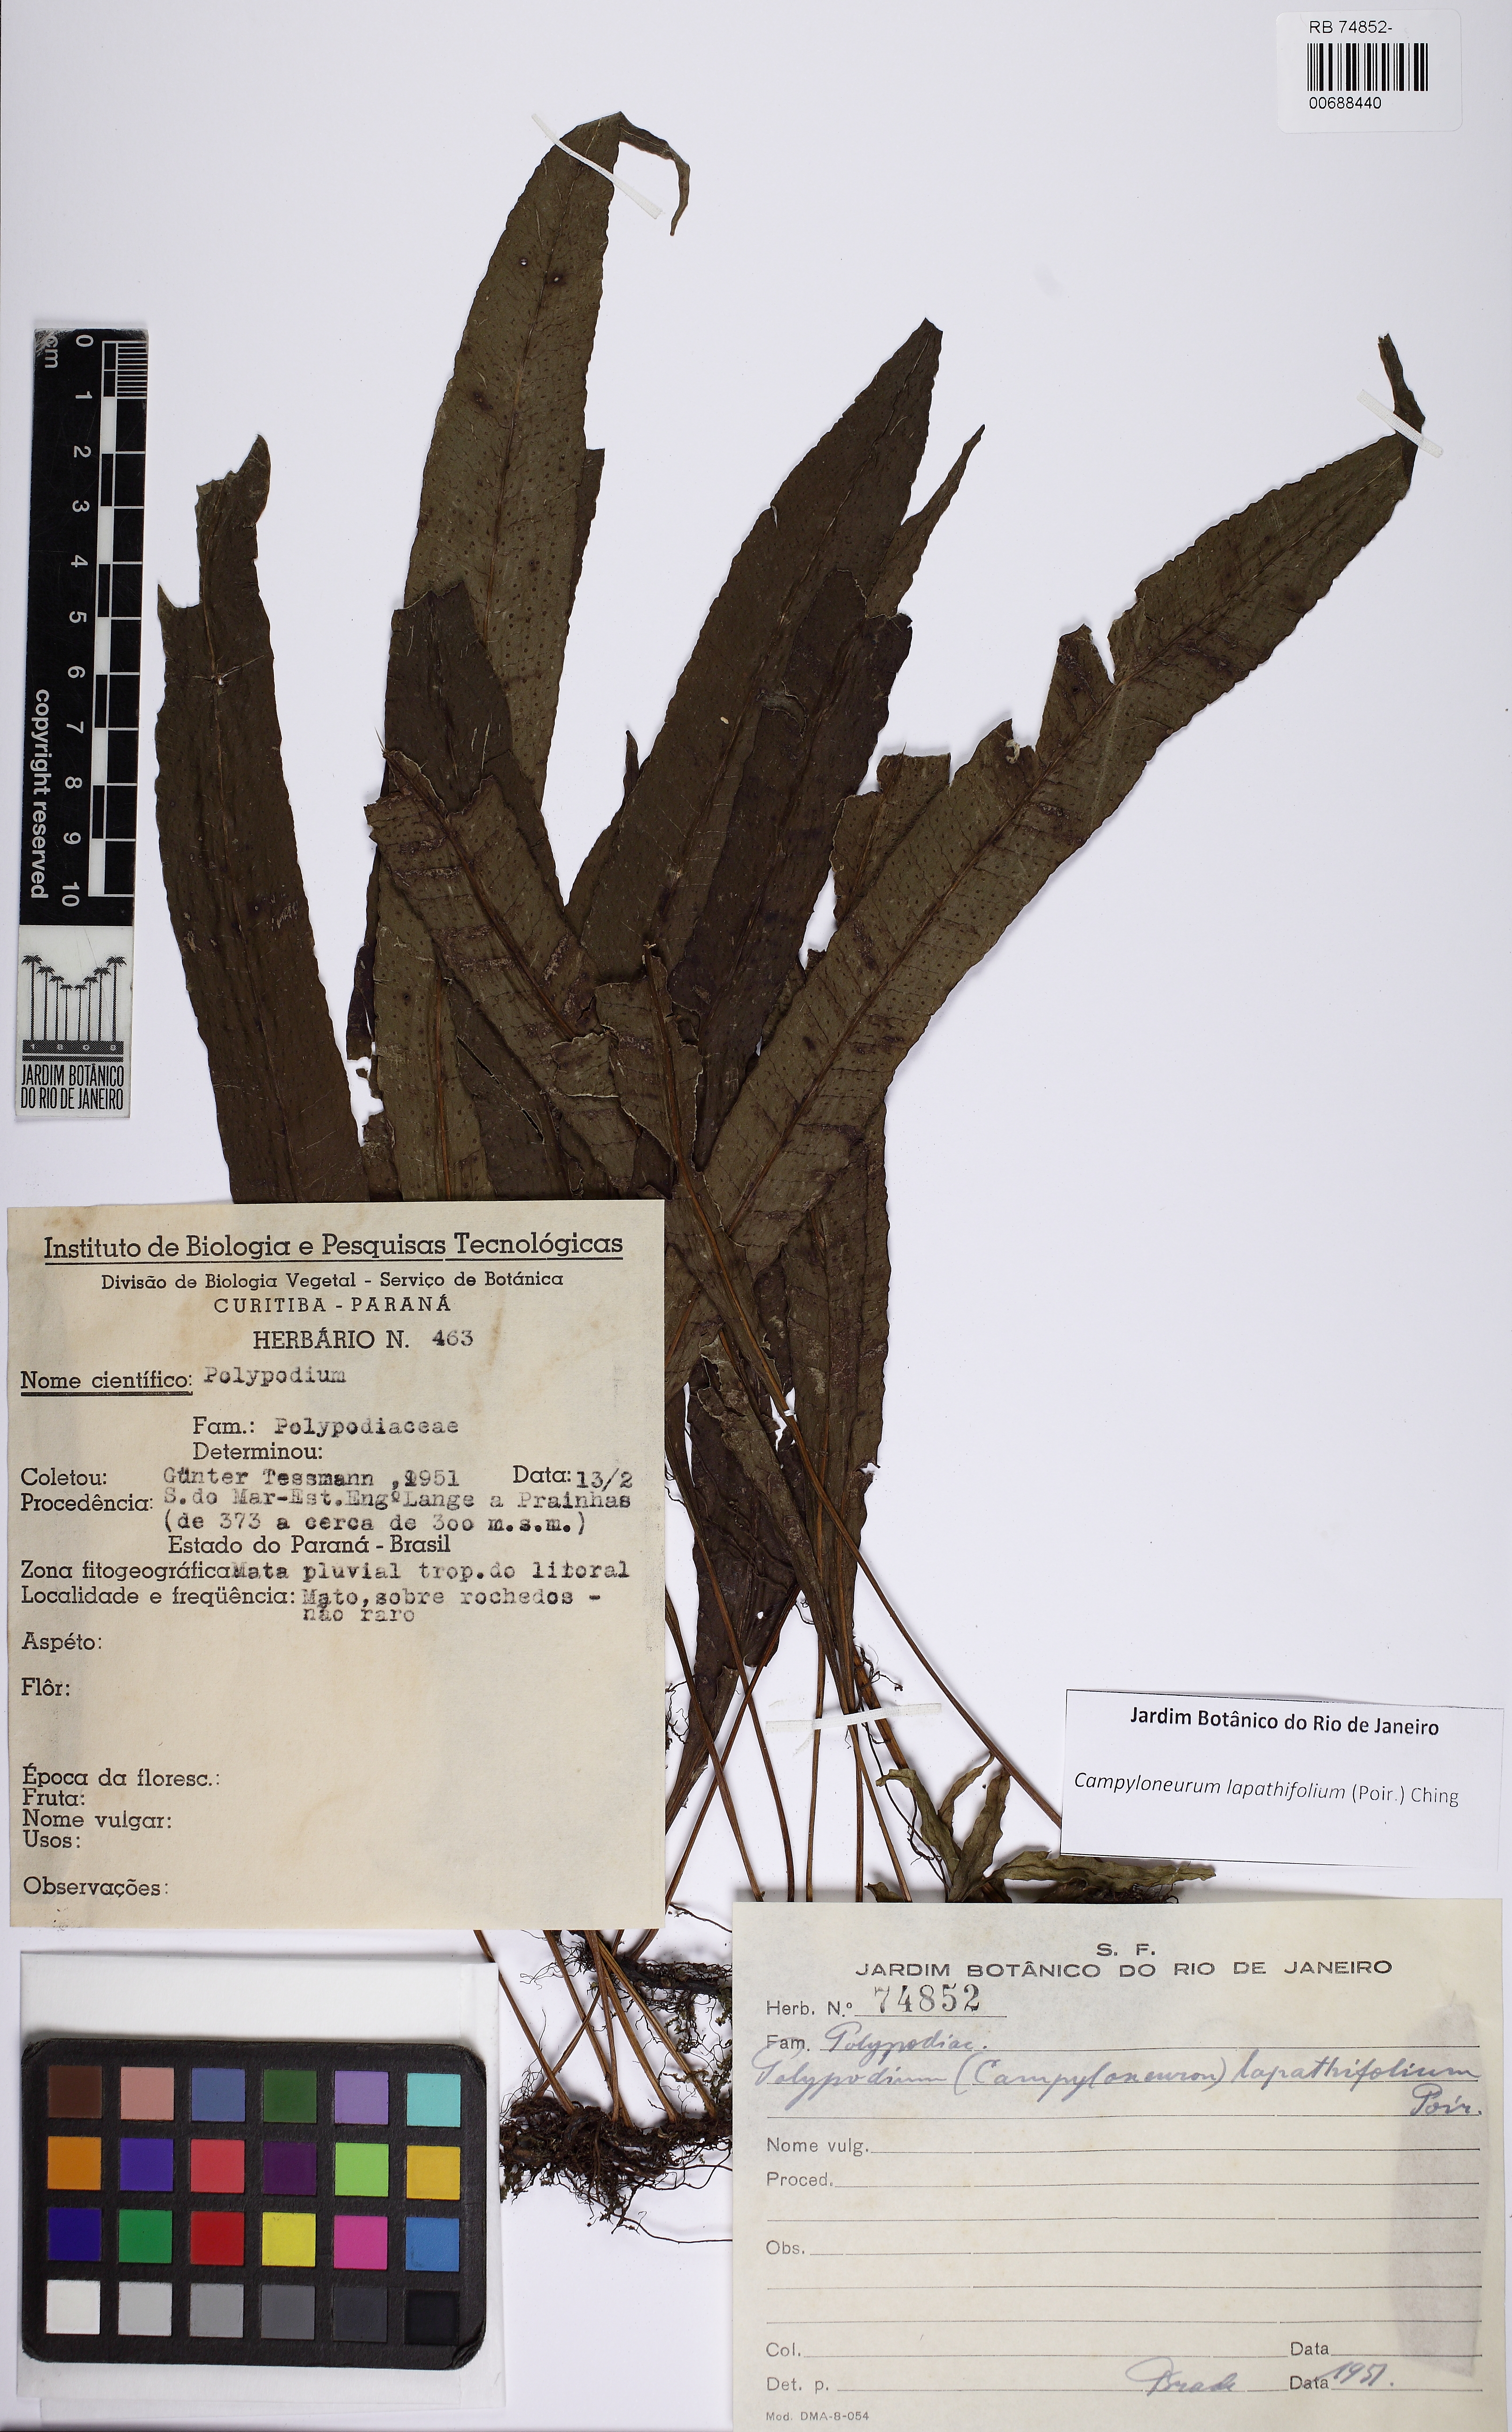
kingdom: Plantae
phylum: Tracheophyta
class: Polypodiopsida
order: Polypodiales
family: Polypodiaceae
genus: Campyloneurum
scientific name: Campyloneurum repens
